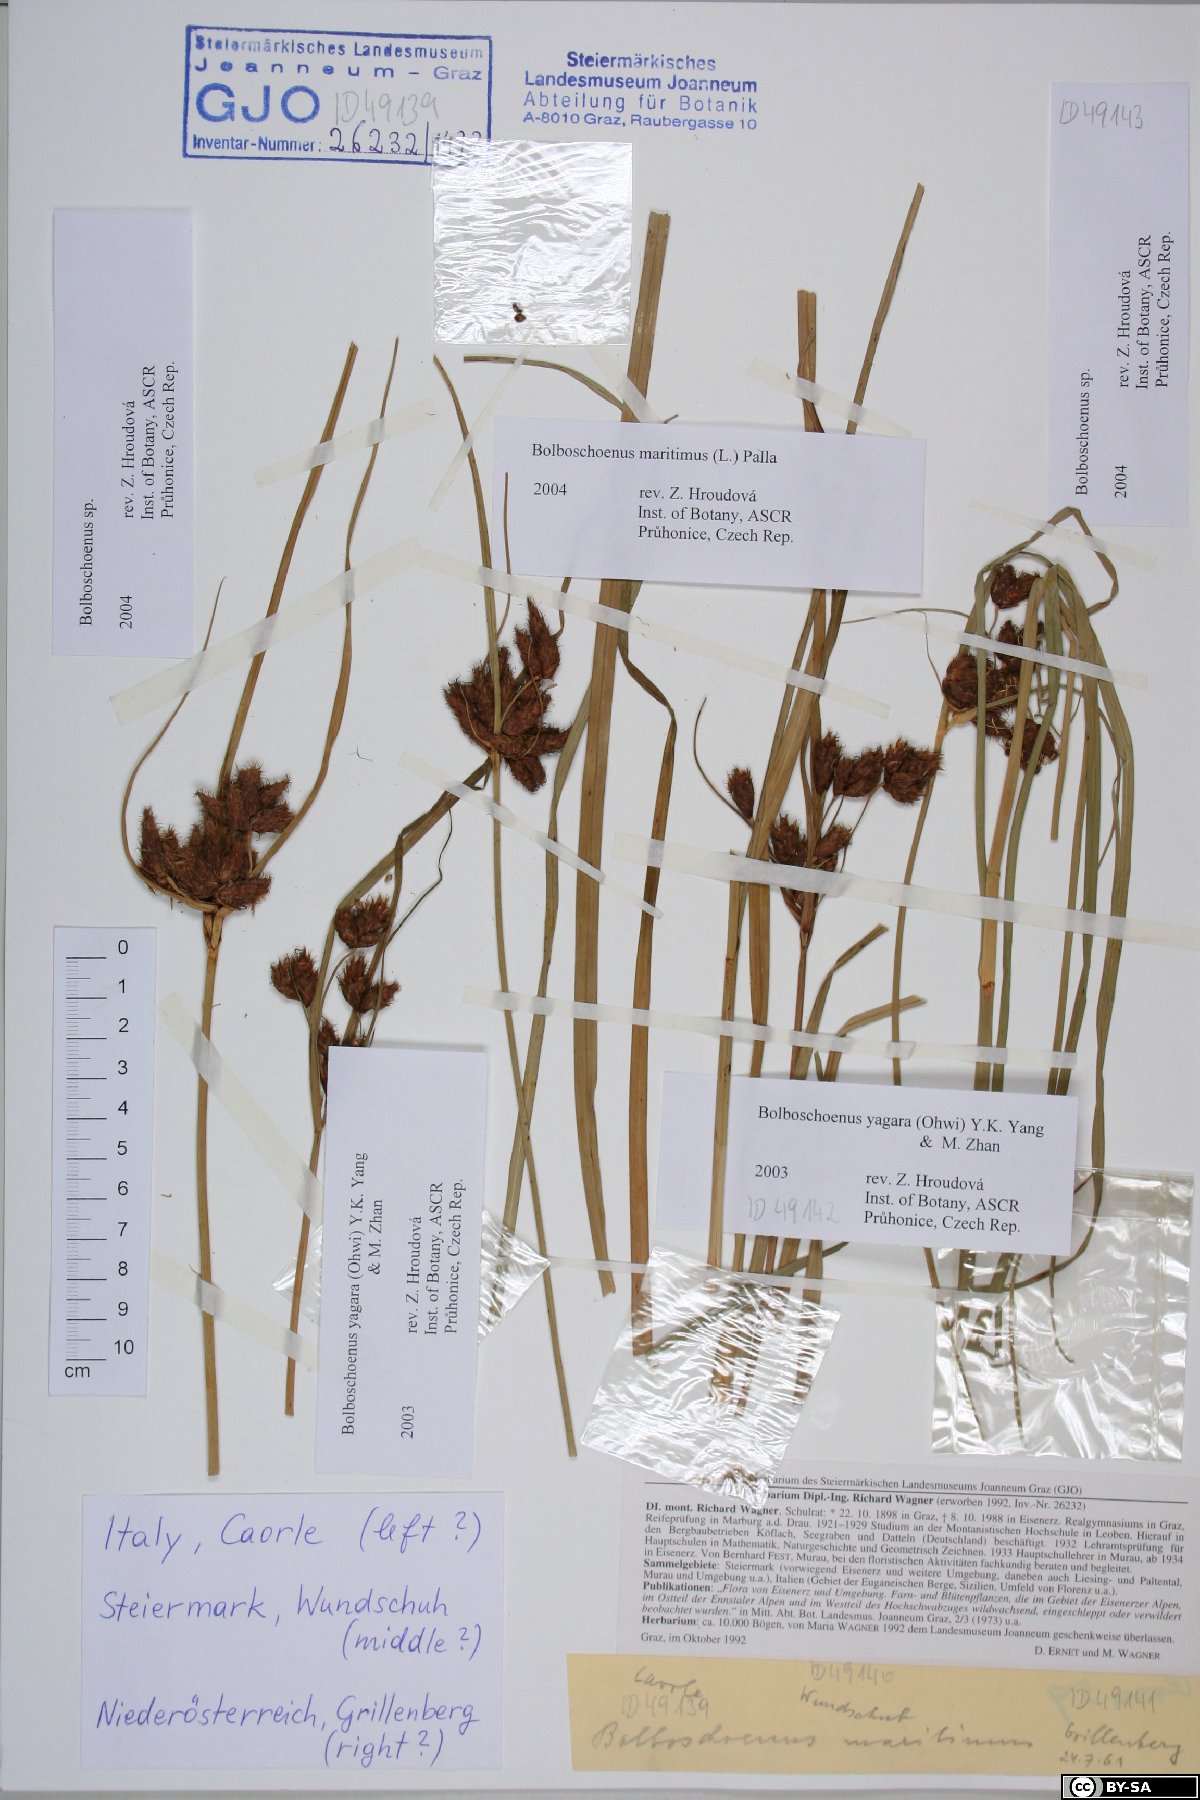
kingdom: Plantae
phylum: Tracheophyta
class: Liliopsida
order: Poales
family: Cyperaceae
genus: Bolboschoenus
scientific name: Bolboschoenus
